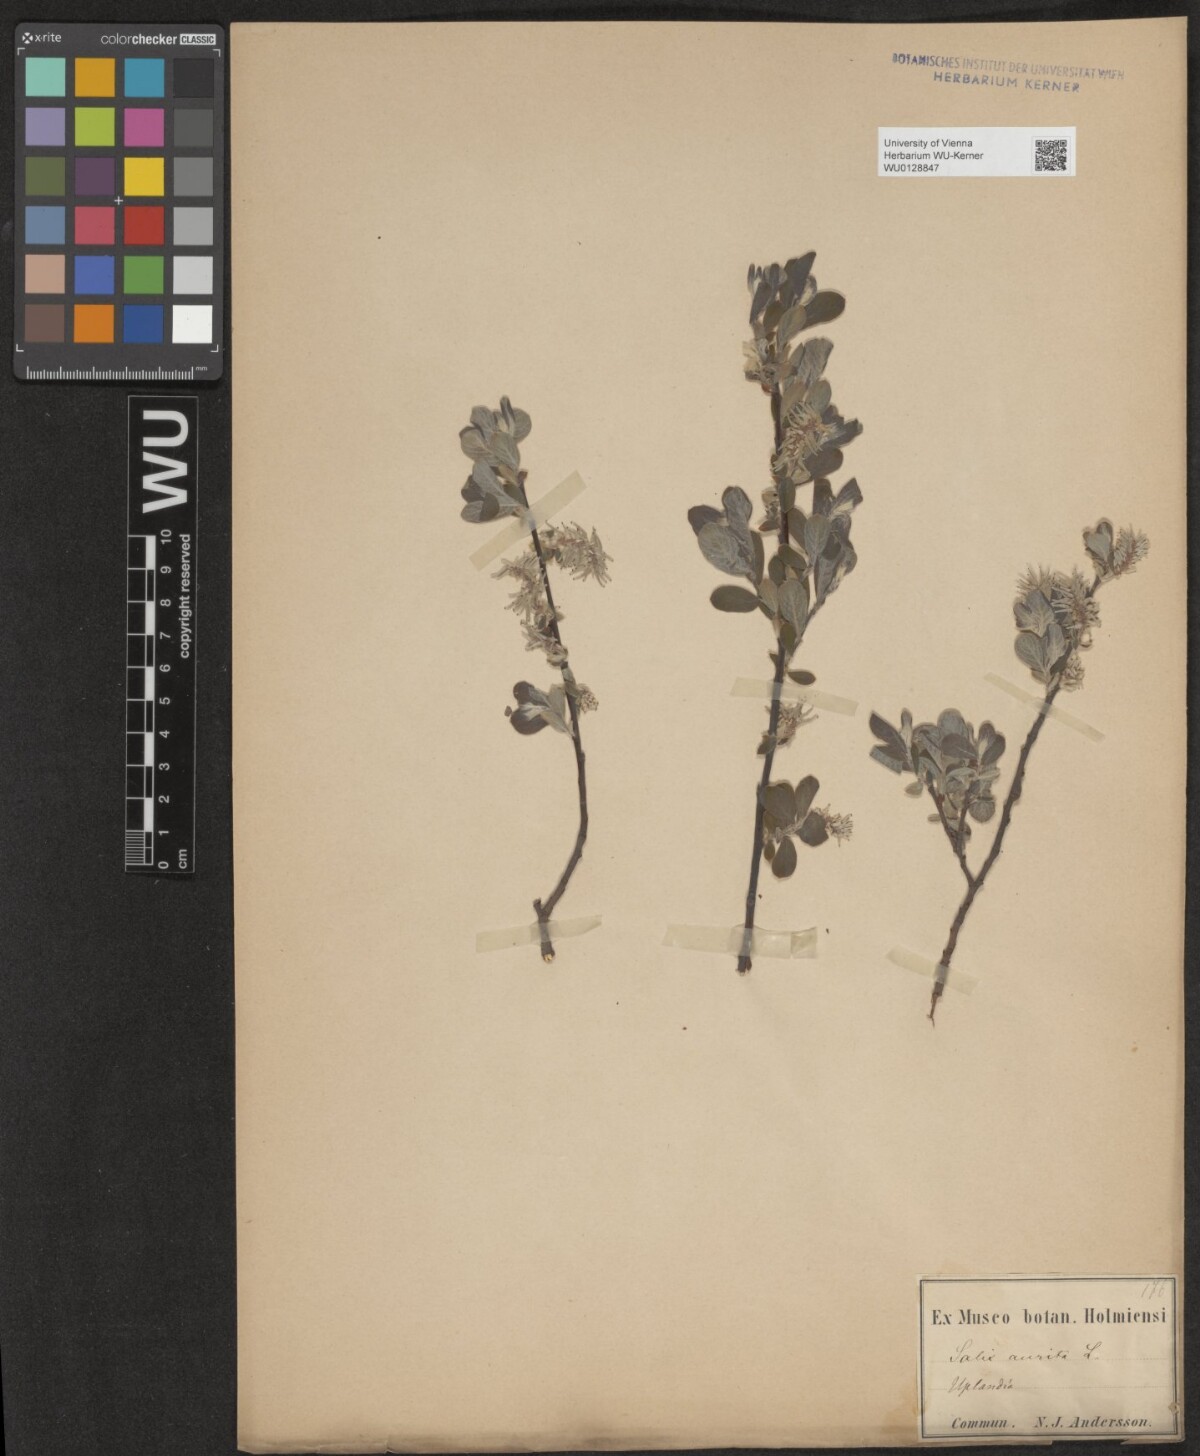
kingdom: Plantae
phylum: Tracheophyta
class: Magnoliopsida
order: Malpighiales
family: Salicaceae
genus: Salix
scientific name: Salix aurita
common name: Eared willow
